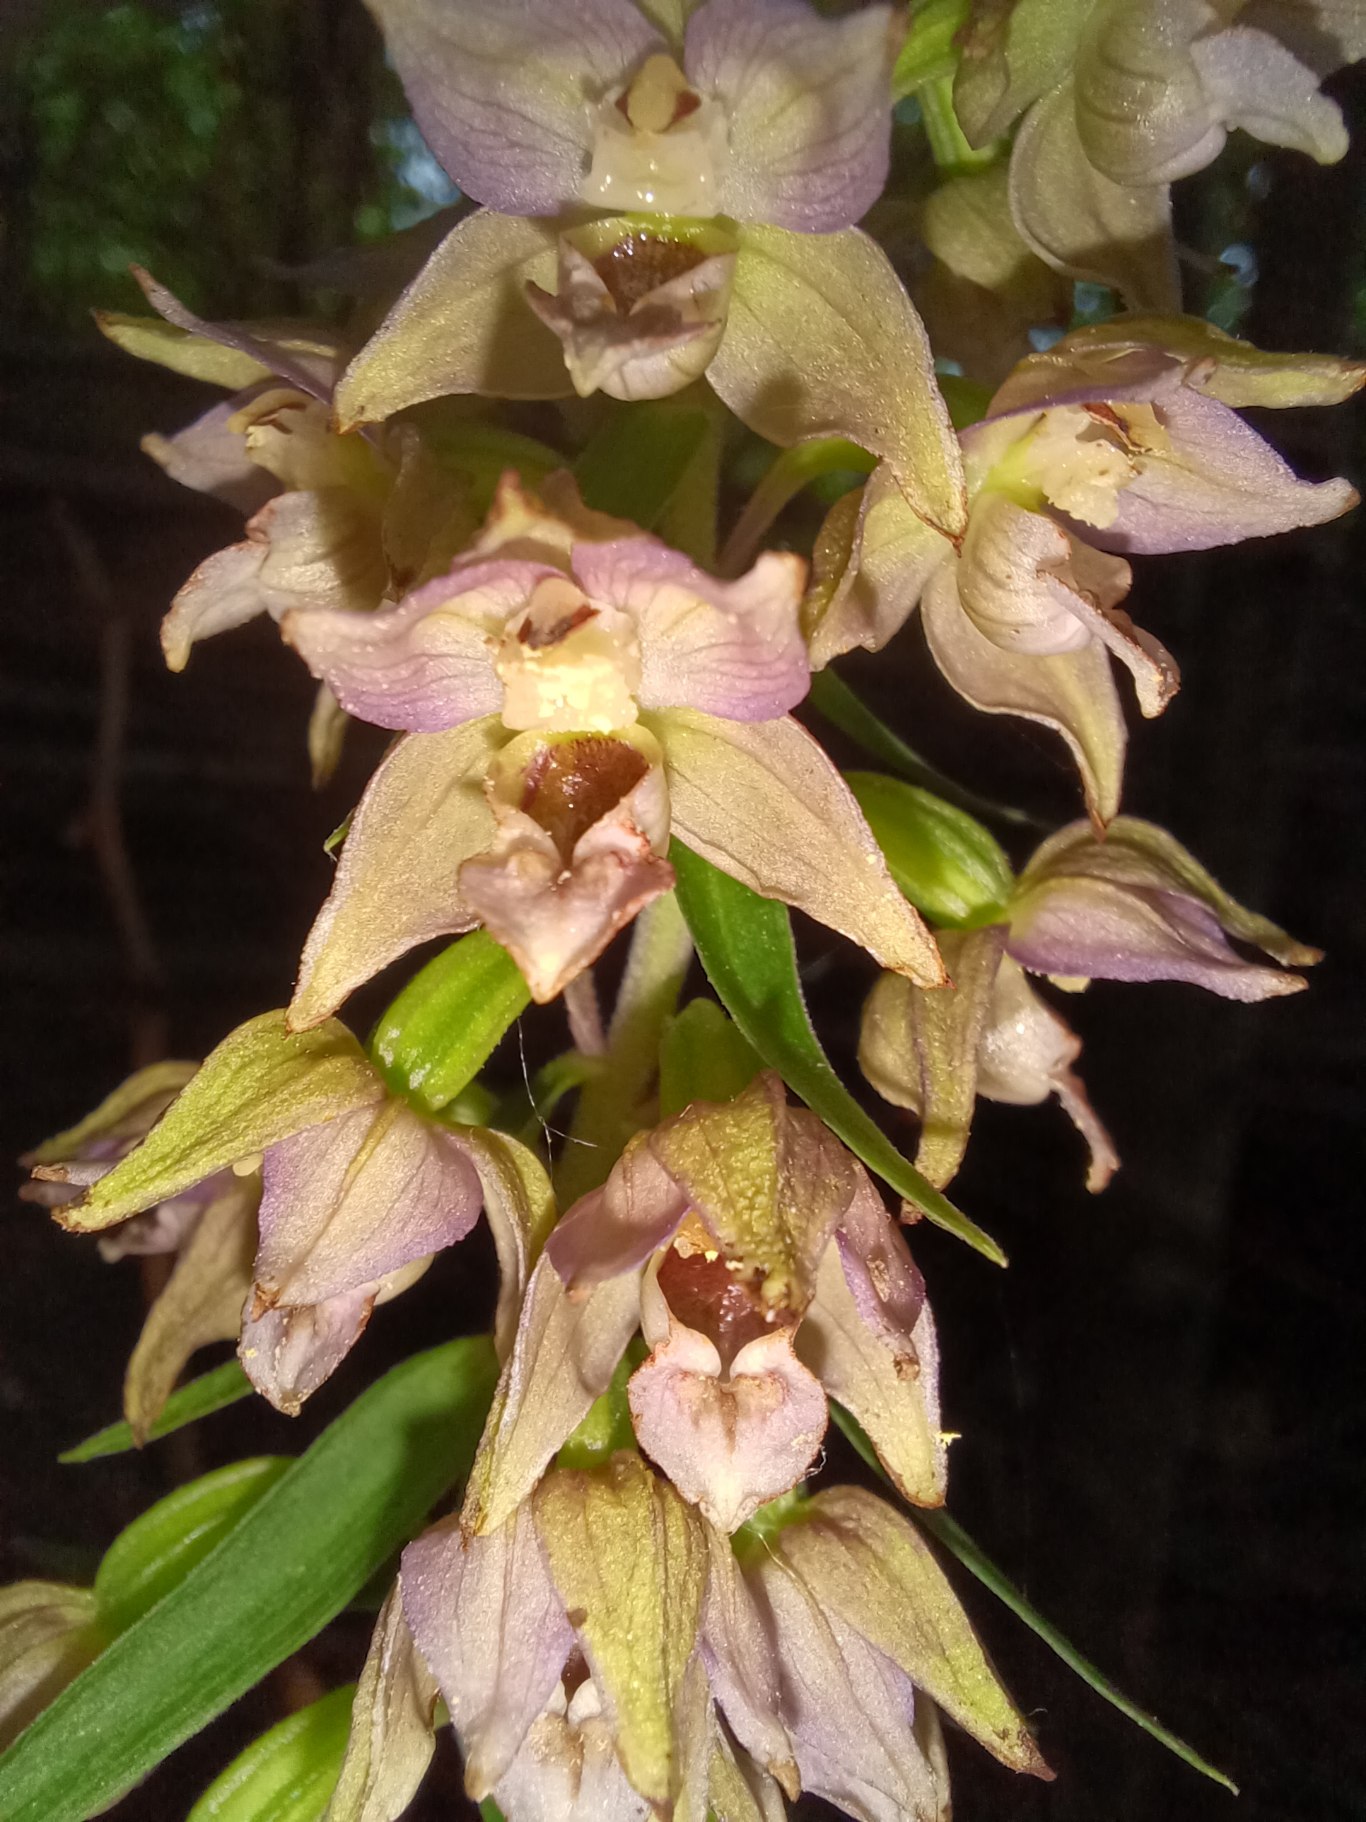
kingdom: Plantae
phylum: Tracheophyta
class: Liliopsida
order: Asparagales
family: Orchidaceae
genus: Epipactis
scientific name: Epipactis helleborine
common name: Skov-hullæbe (underart)
